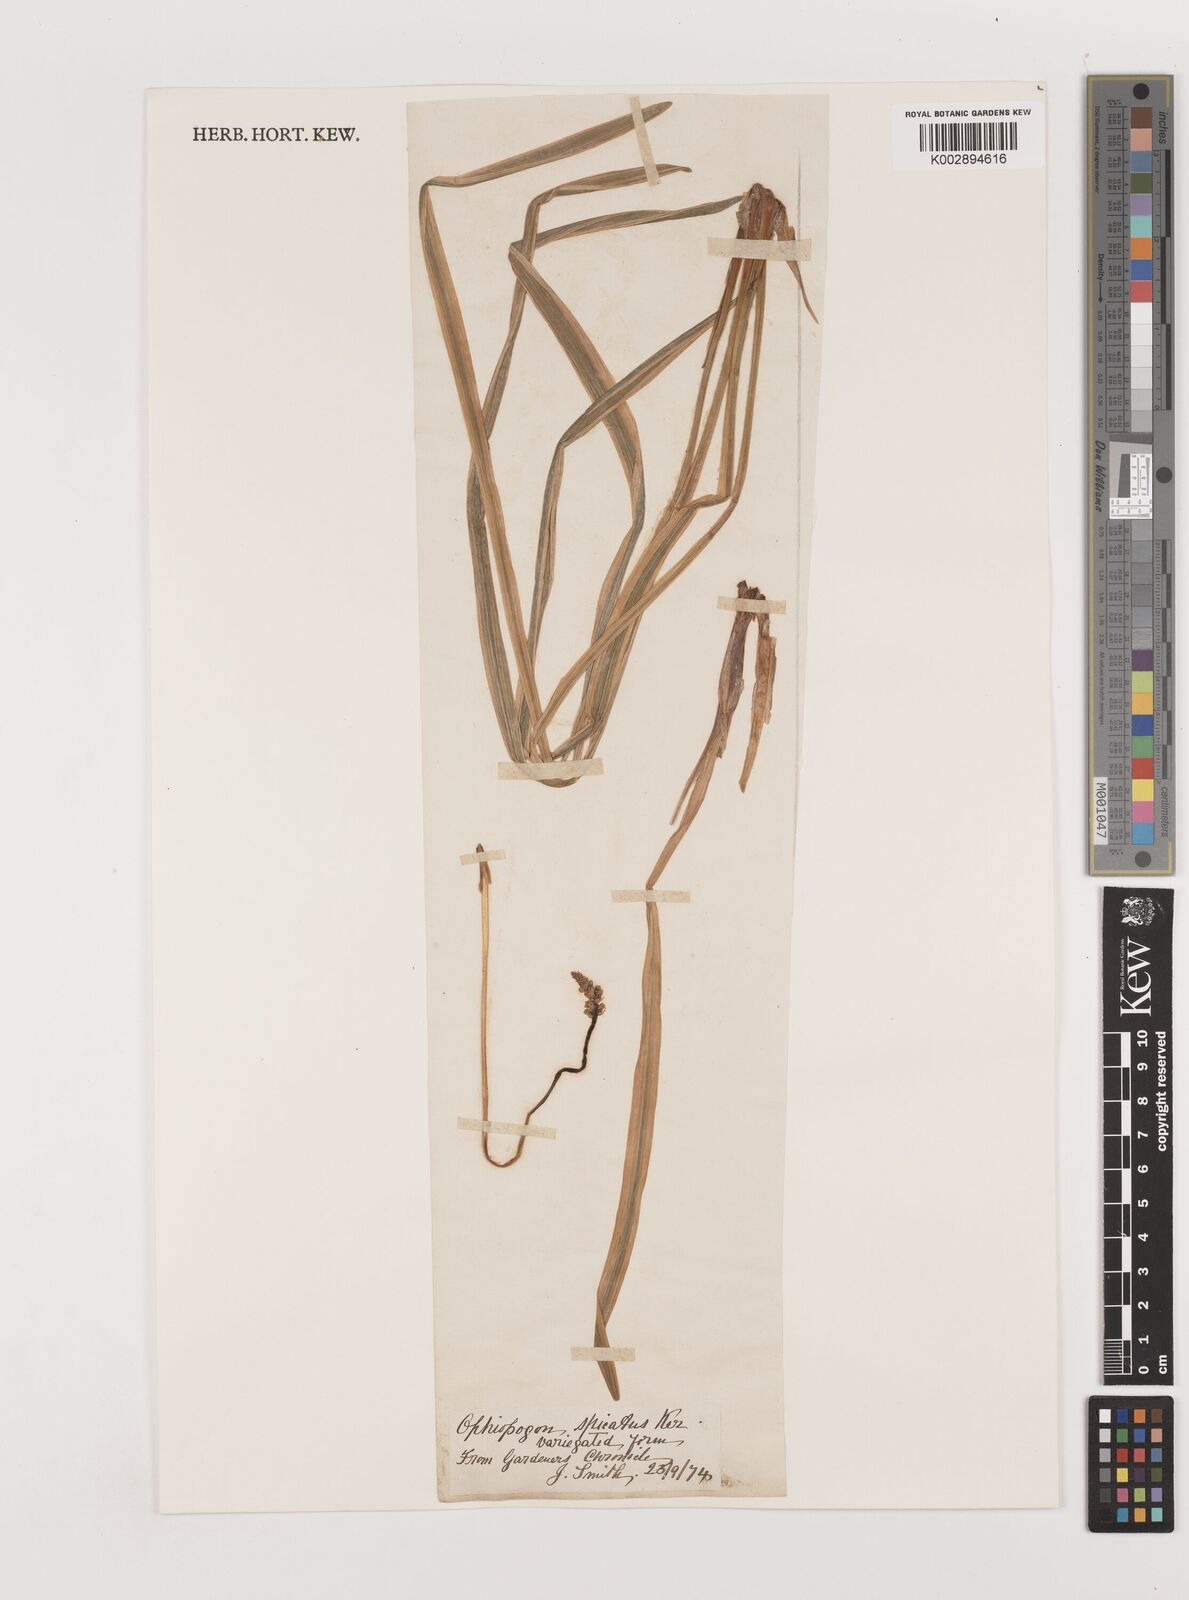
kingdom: Plantae
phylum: Tracheophyta
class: Liliopsida
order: Asparagales
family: Asparagaceae
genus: Liriope
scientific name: Liriope muscari
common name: Big blue lilyturf
